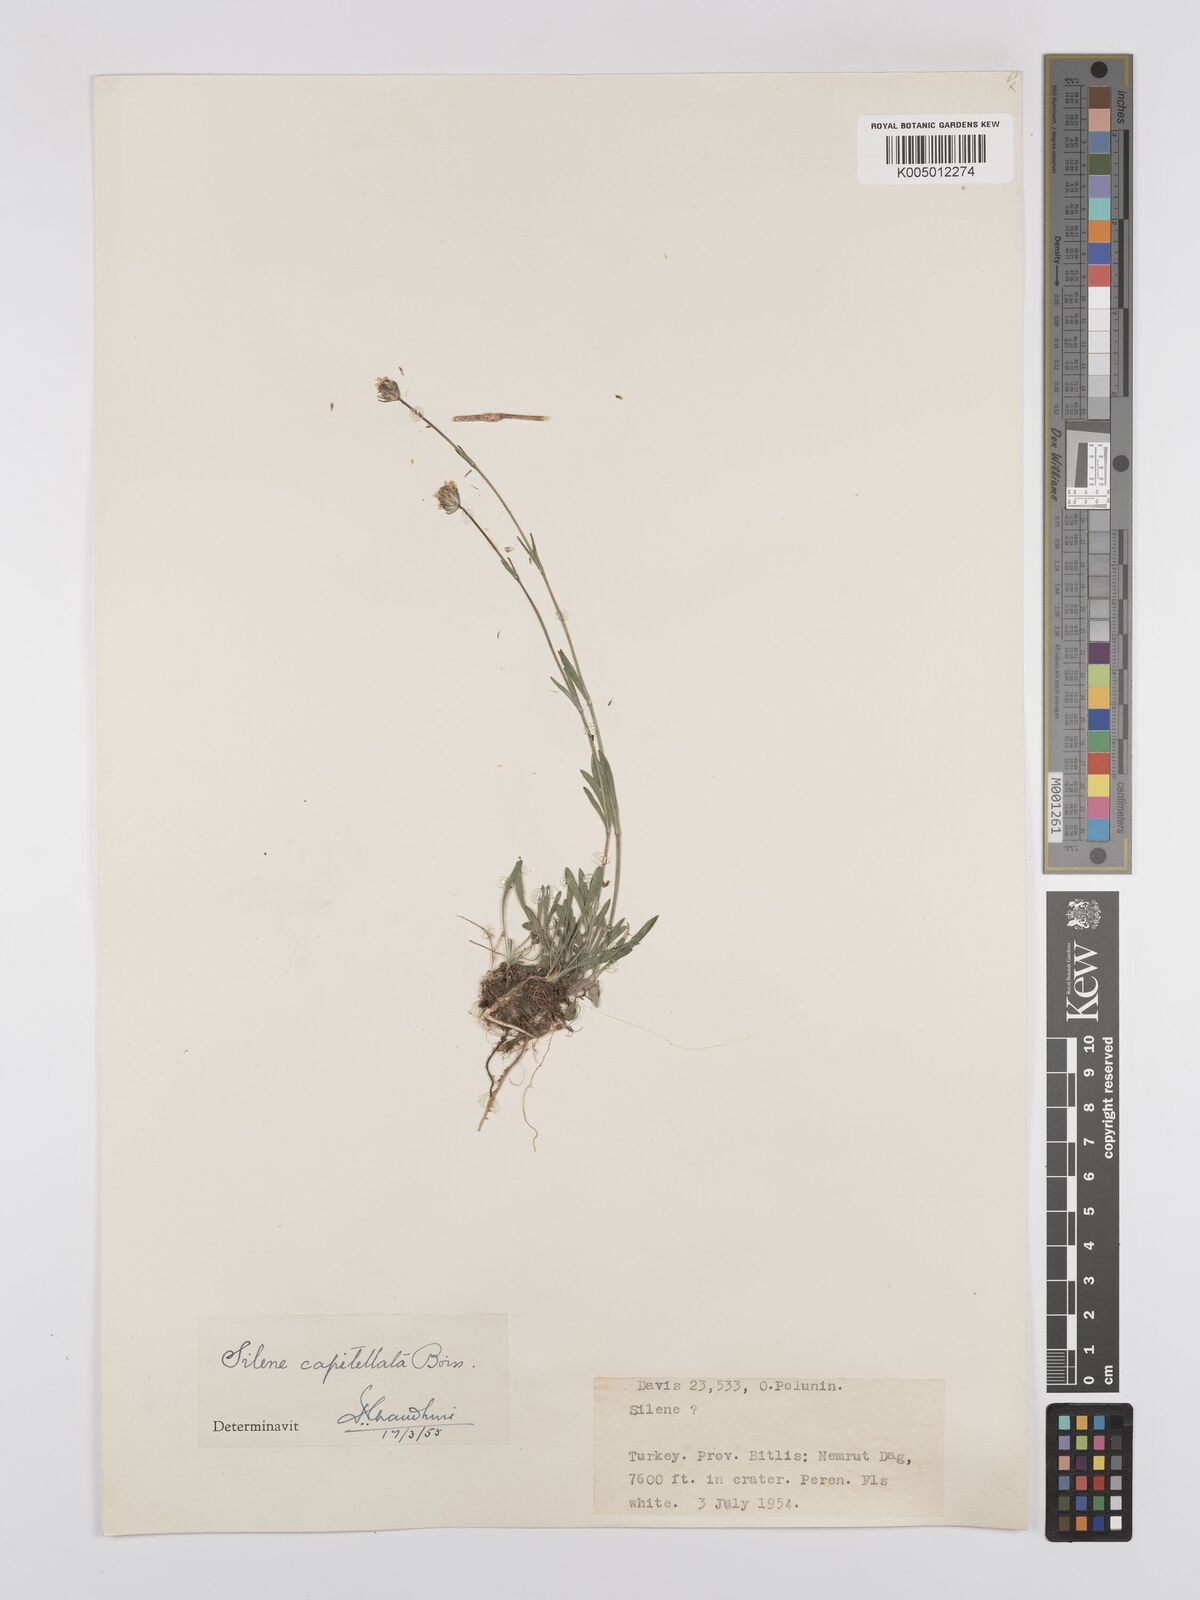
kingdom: Plantae
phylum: Tracheophyta
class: Magnoliopsida
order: Caryophyllales
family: Caryophyllaceae
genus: Silene
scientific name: Silene capitellata
